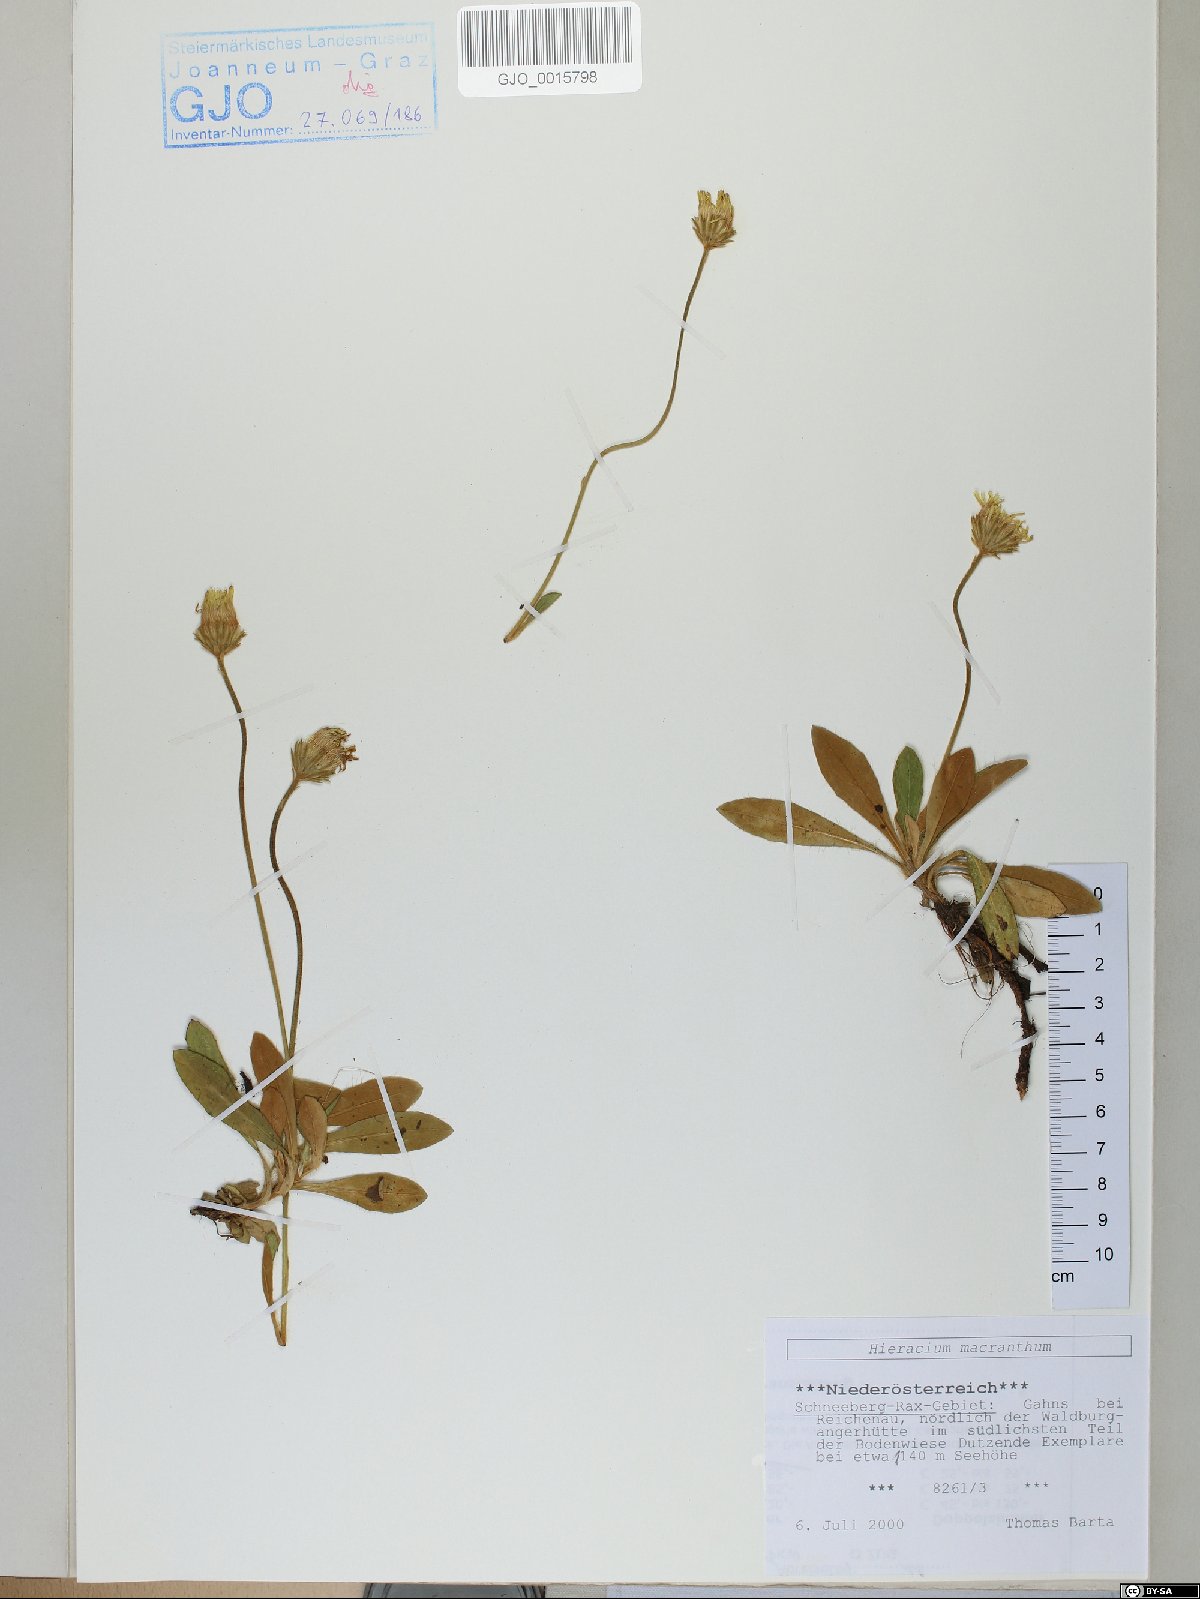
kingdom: Plantae
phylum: Tracheophyta
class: Magnoliopsida
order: Asterales
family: Asteraceae
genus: Pilosella
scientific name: Pilosella hoppeana
